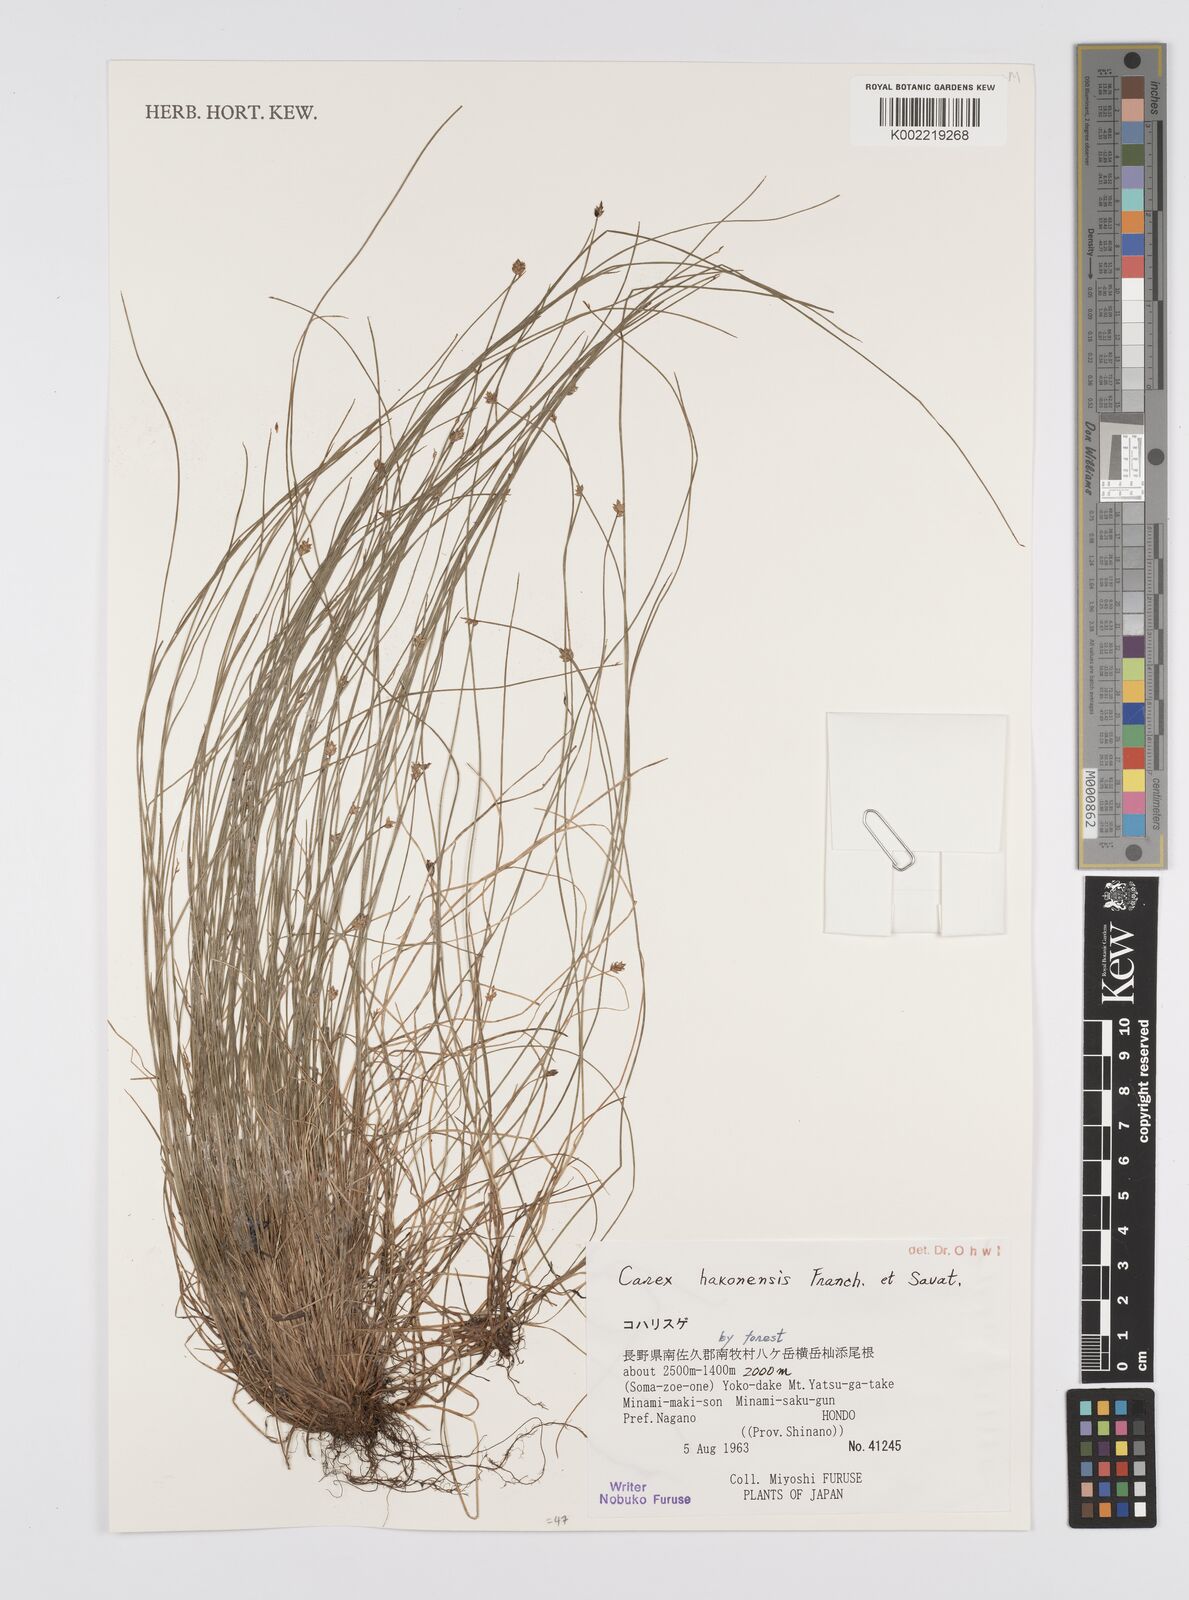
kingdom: Plantae
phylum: Tracheophyta
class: Liliopsida
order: Poales
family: Cyperaceae
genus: Carex
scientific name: Carex onoei
